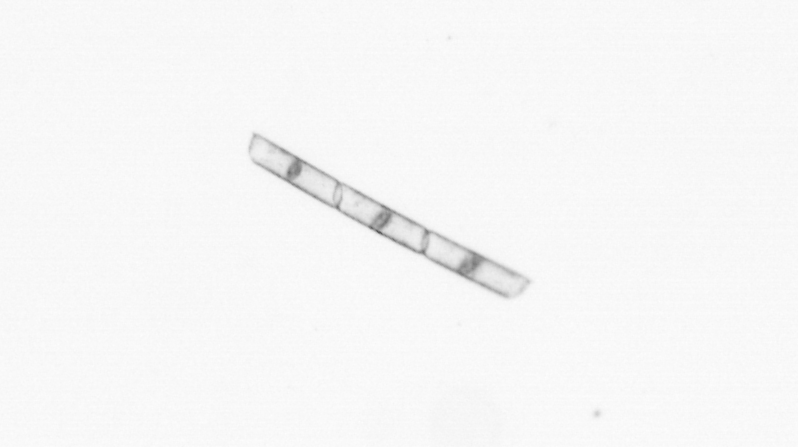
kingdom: Chromista
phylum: Ochrophyta
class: Bacillariophyceae
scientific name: Bacillariophyceae
